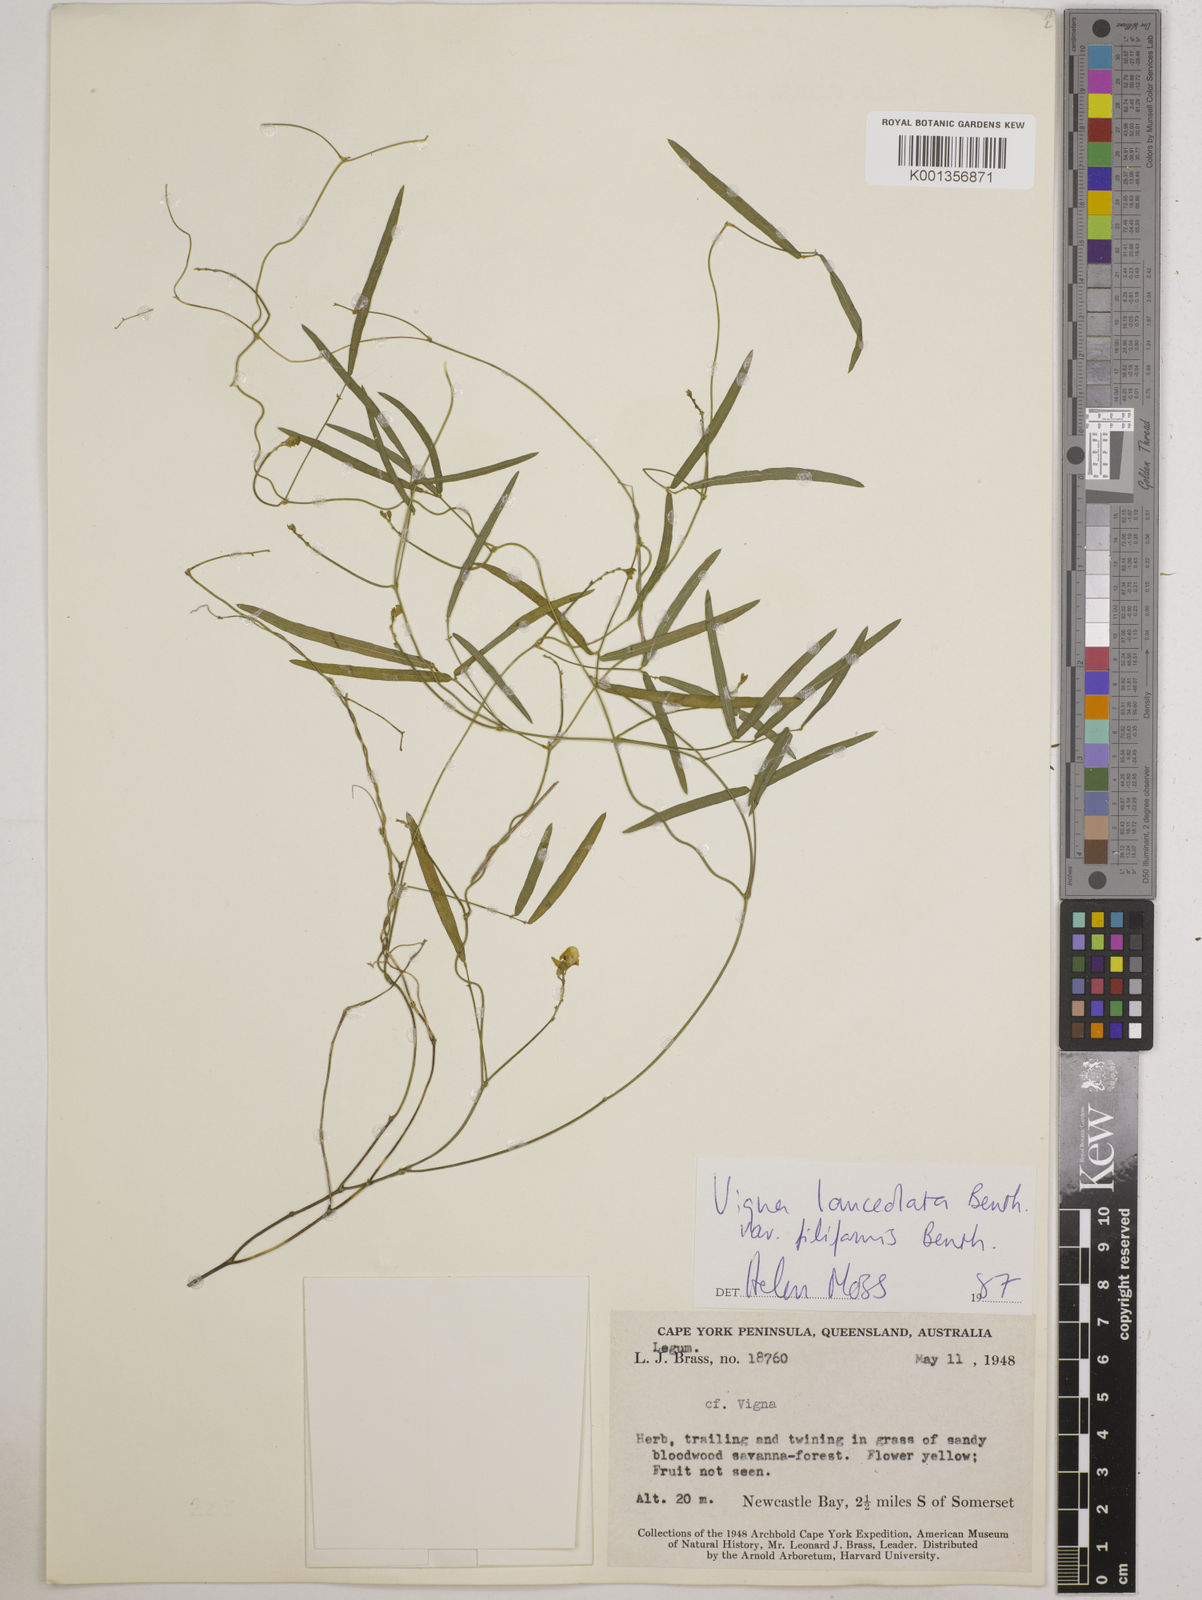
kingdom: Plantae
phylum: Tracheophyta
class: Magnoliopsida
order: Fabales
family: Fabaceae
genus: Vigna
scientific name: Vigna lanceolata
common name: Maloga-bean
